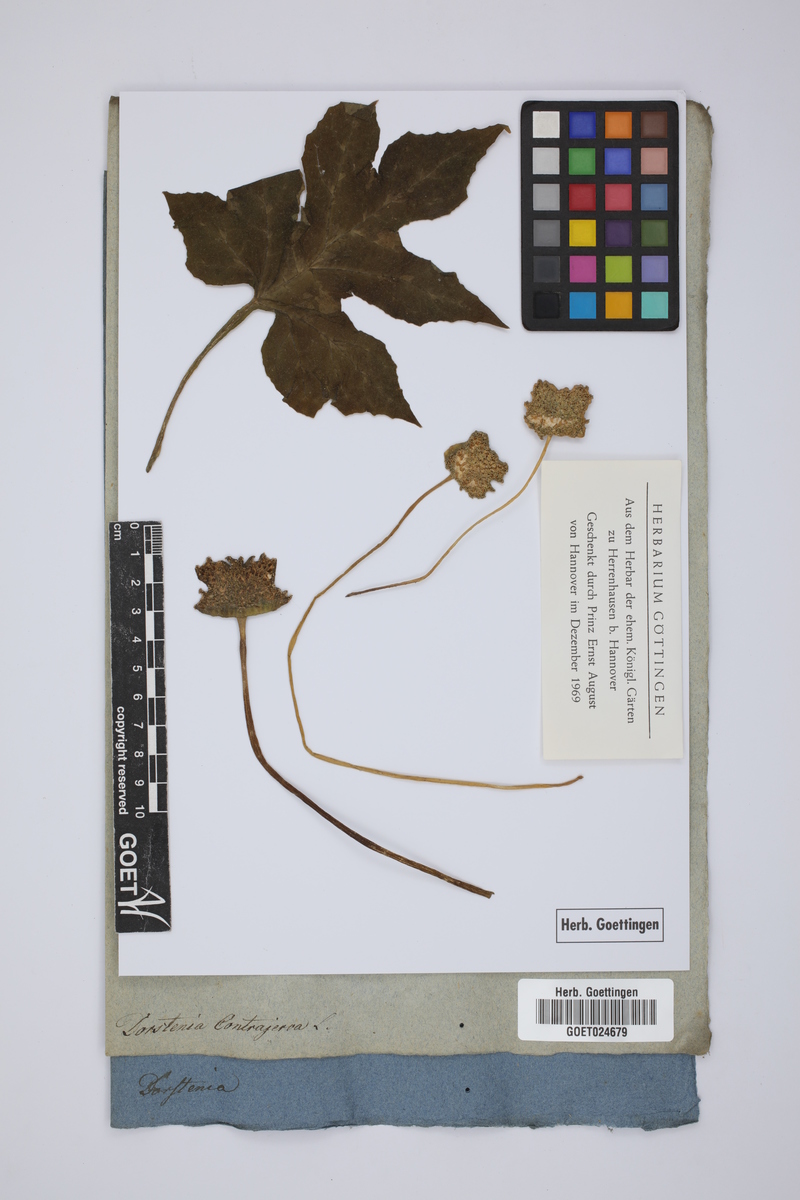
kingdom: Plantae
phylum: Tracheophyta
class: Magnoliopsida
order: Rosales
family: Moraceae
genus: Dorstenia
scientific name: Dorstenia contrajerva
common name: Tusilla
